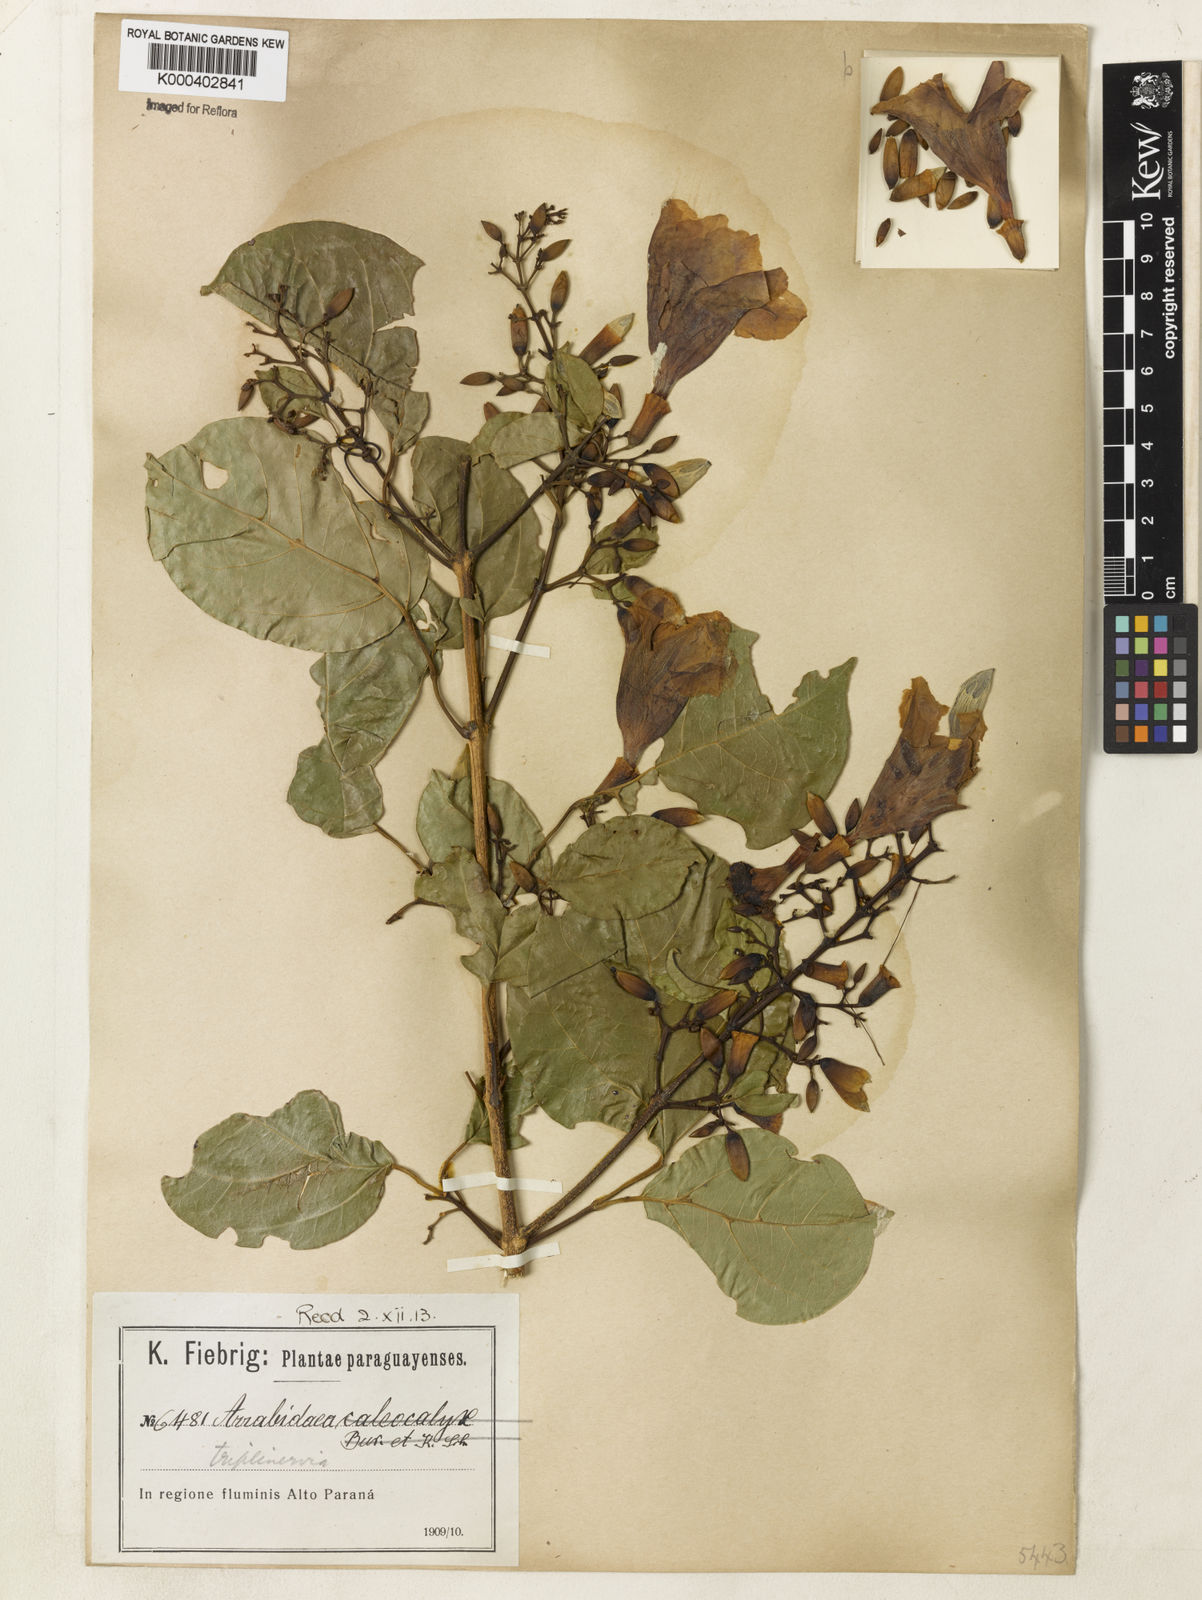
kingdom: Plantae
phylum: Tracheophyta
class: Magnoliopsida
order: Lamiales
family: Bignoniaceae
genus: Fridericia
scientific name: Fridericia triplinervia
